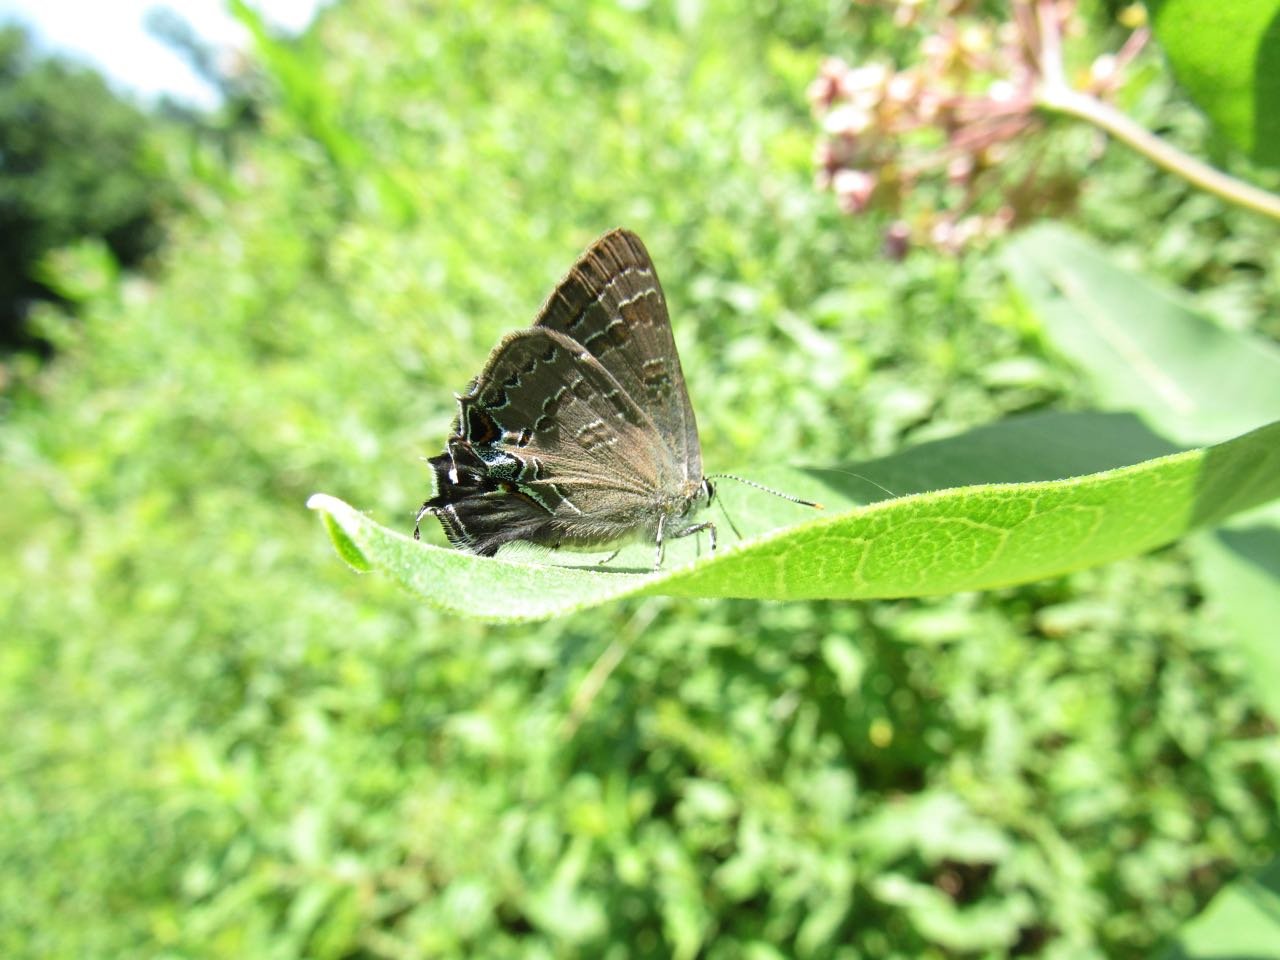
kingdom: Animalia
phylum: Arthropoda
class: Insecta
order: Lepidoptera
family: Lycaenidae
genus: Strymon
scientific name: Strymon caryaevorus
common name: Hickory Hairstreak
